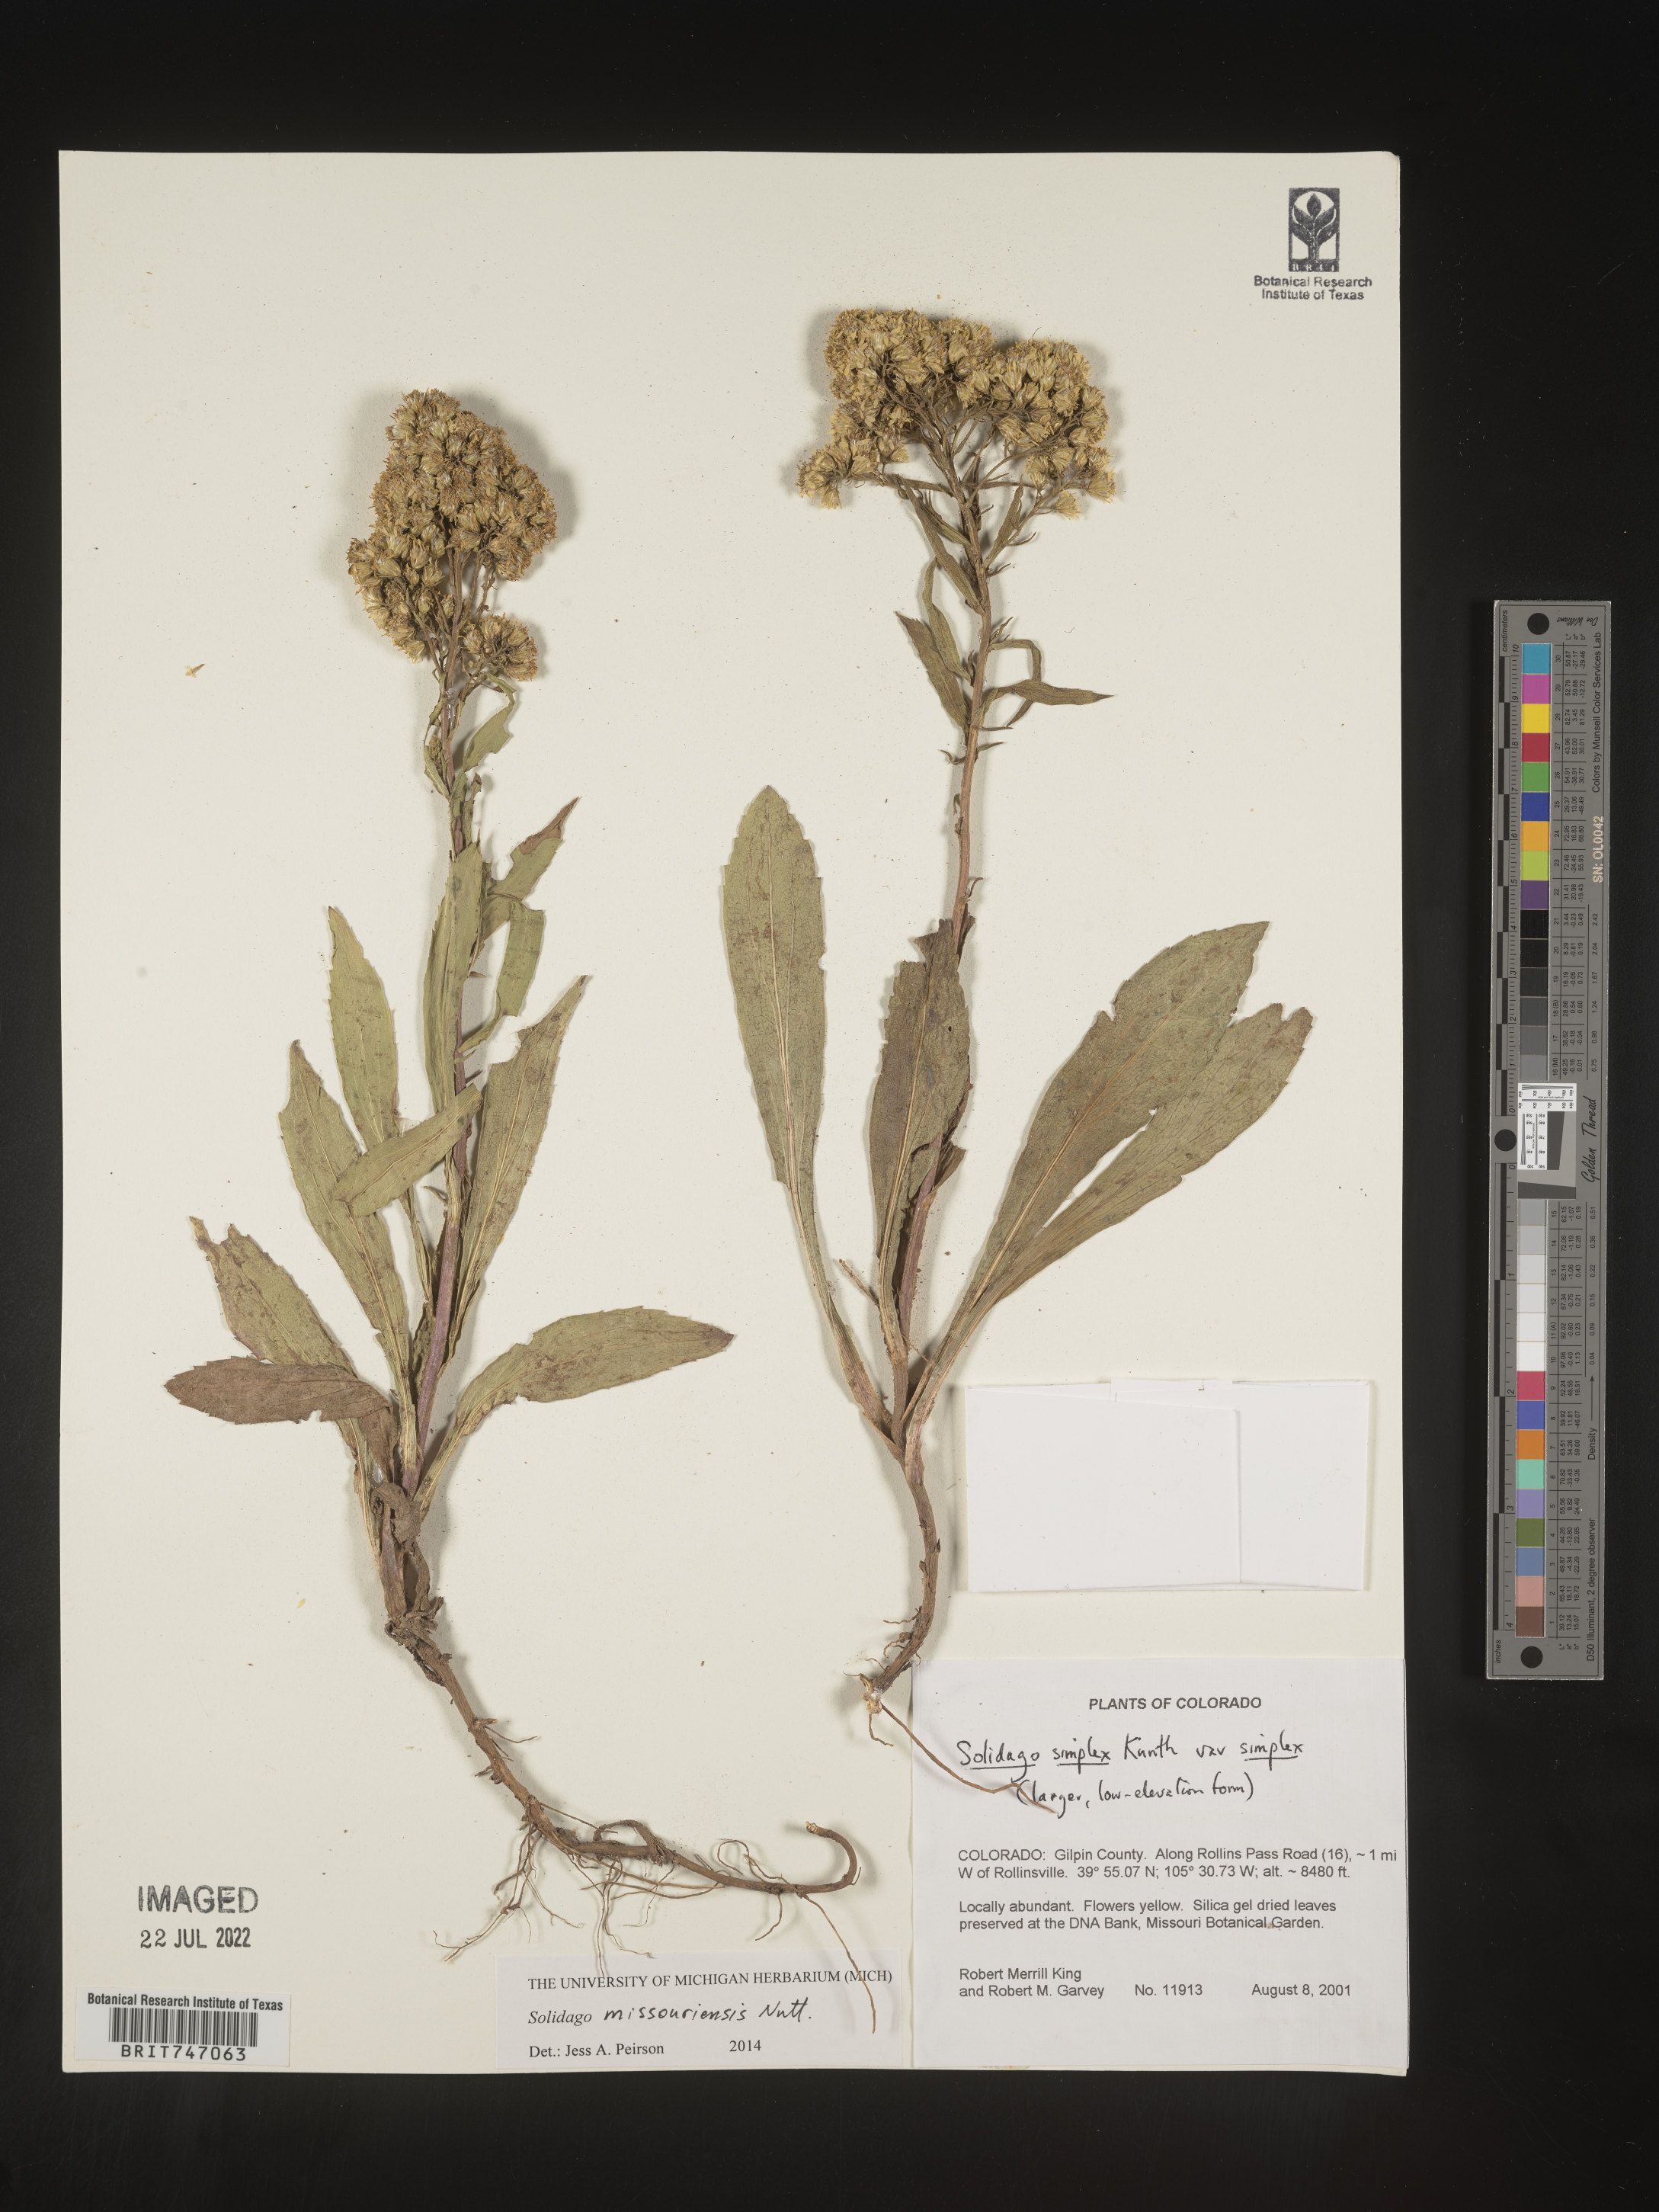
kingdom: Plantae
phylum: Tracheophyta
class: Magnoliopsida
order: Asterales
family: Asteraceae
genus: Solidago
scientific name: Solidago missouriensis
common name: Prairie goldenrod
